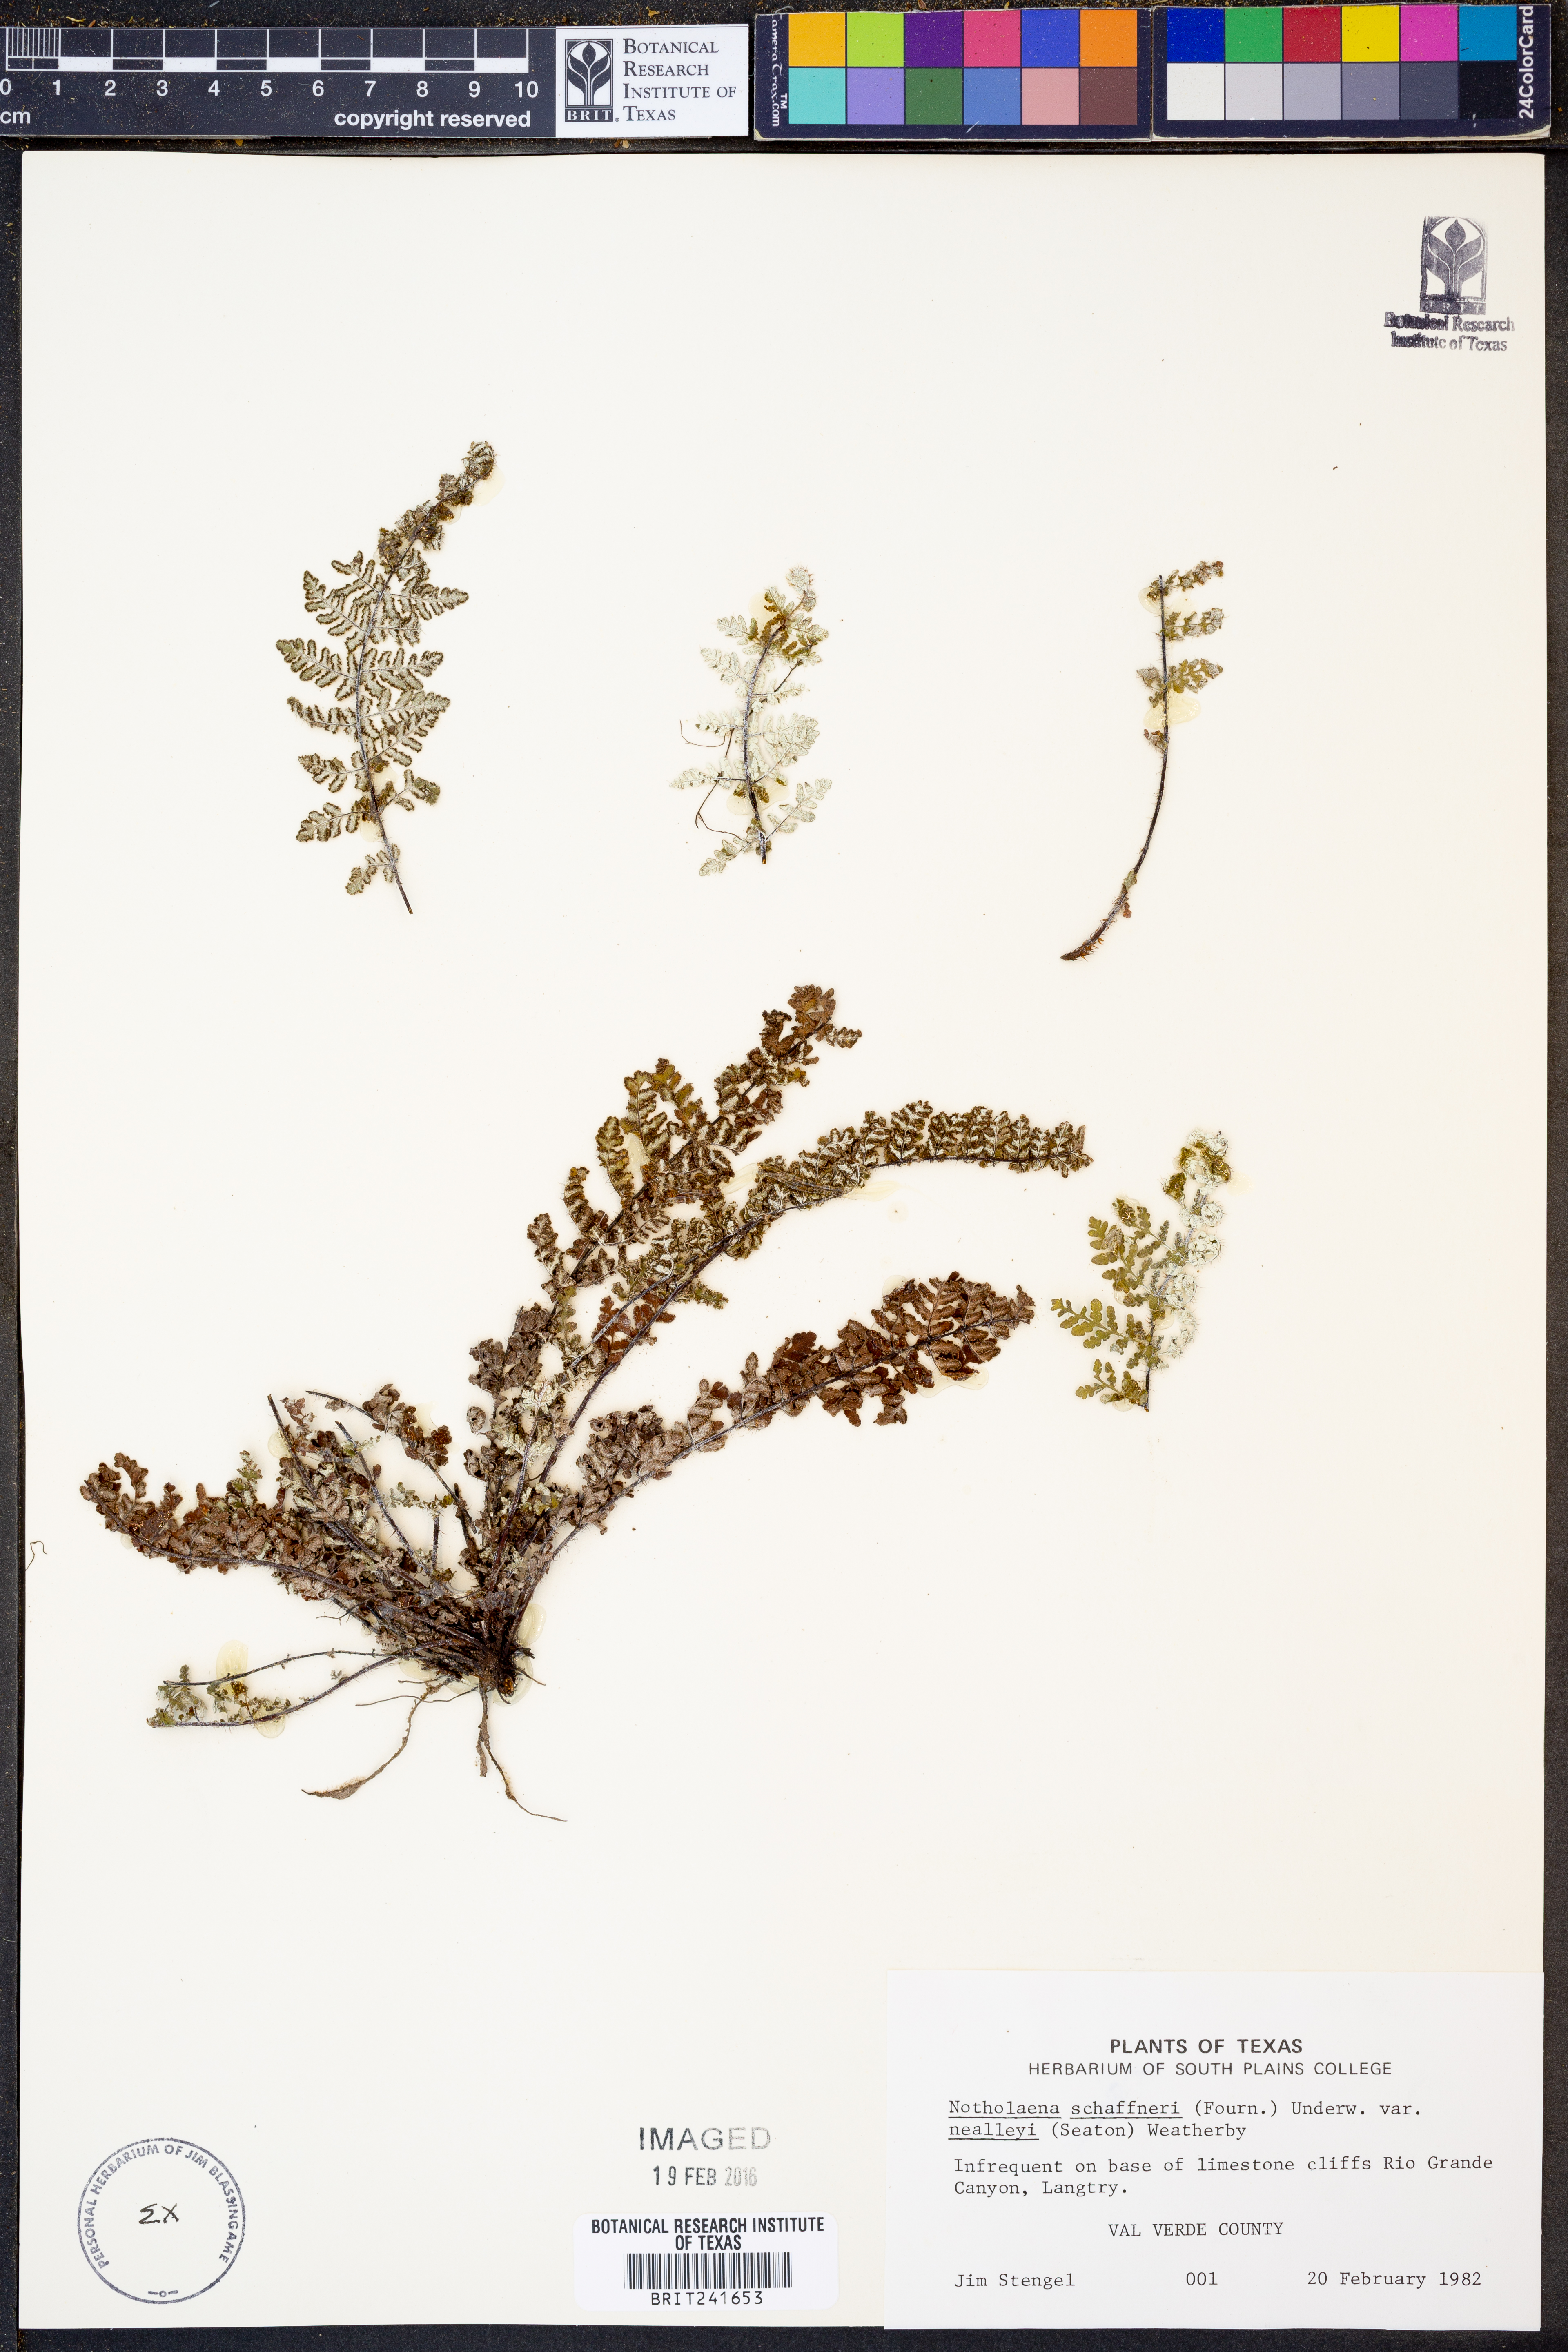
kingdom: Plantae
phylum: Tracheophyta
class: Polypodiopsida
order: Polypodiales
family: Pteridaceae
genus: Notholaena
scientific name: Notholaena schaffneri
